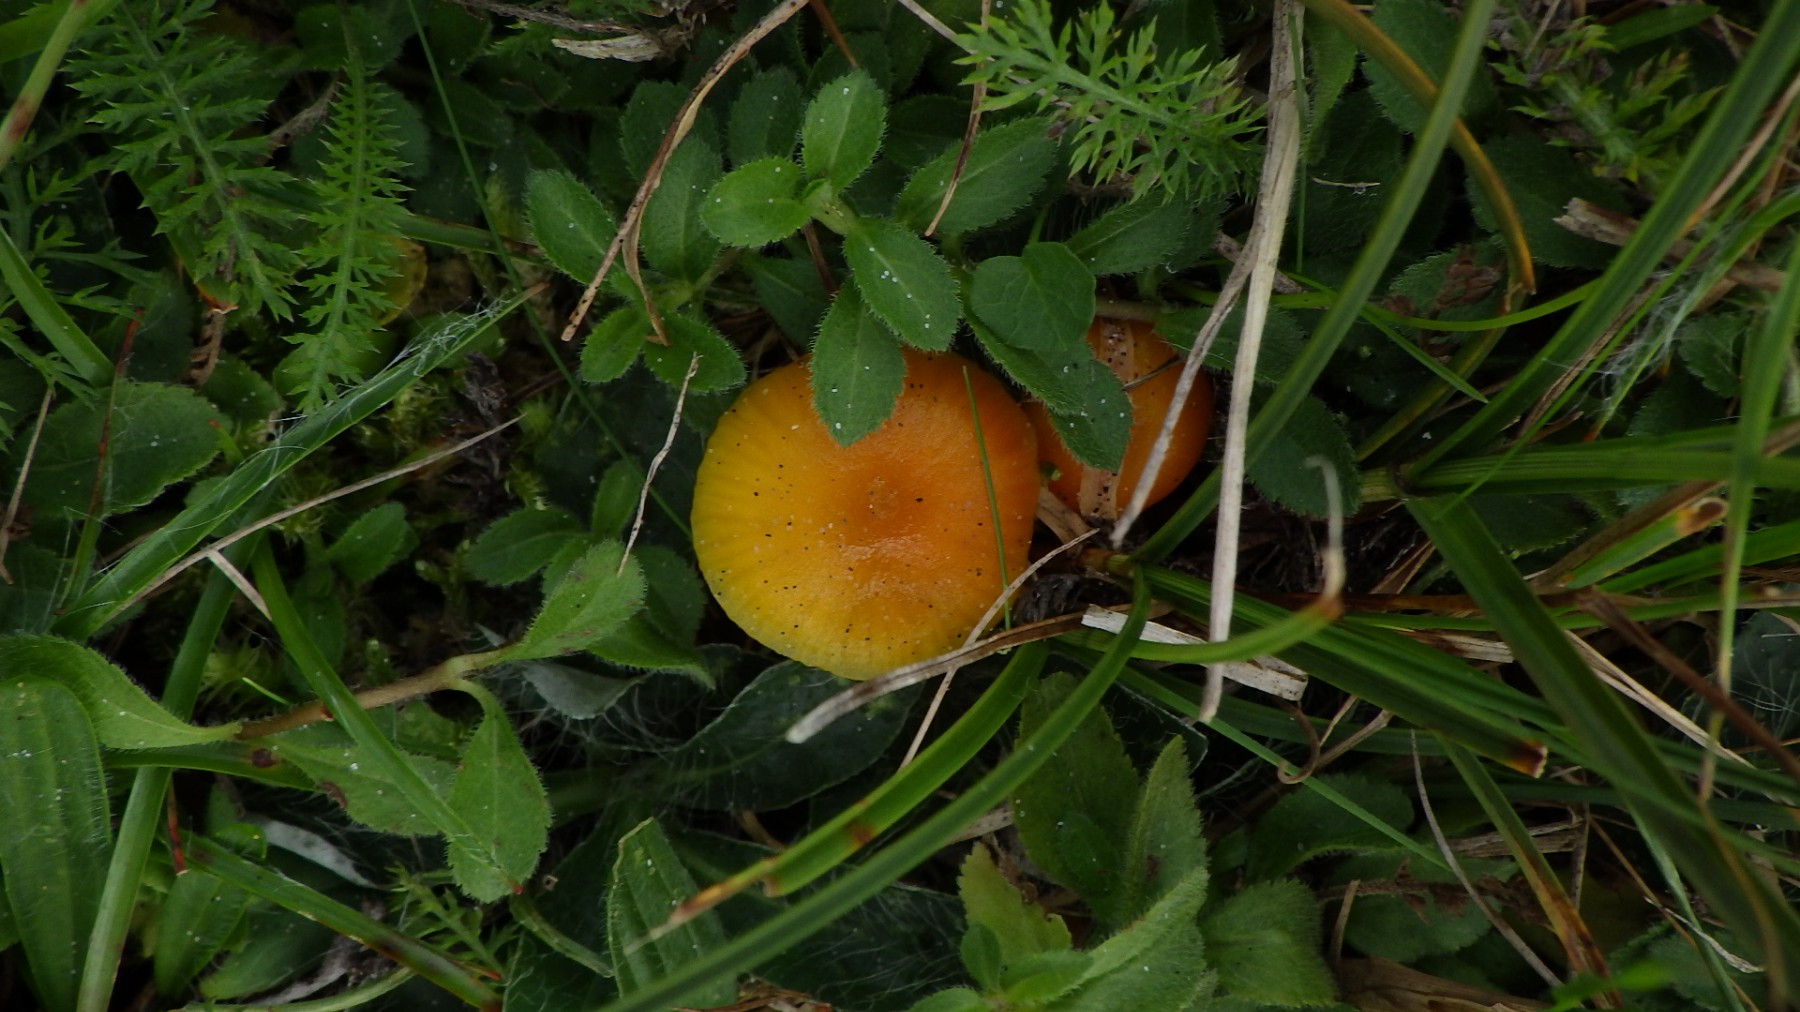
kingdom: Fungi
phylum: Basidiomycota
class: Agaricomycetes
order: Agaricales
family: Hygrophoraceae
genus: Hygrocybe
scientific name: Hygrocybe mucronella
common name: bitter vokshat
